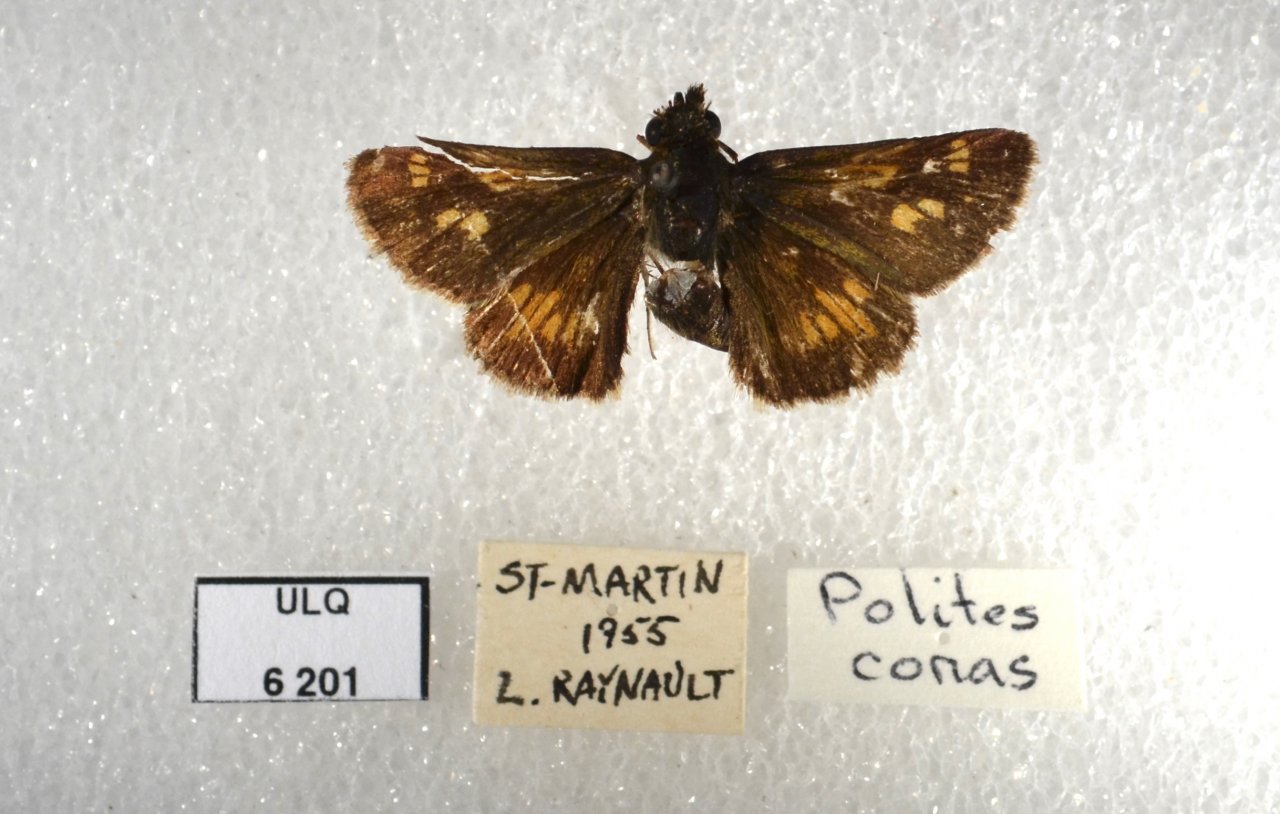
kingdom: Animalia
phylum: Arthropoda
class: Insecta
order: Lepidoptera
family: Hesperiidae
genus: Polites
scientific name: Polites coras
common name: Peck's Skipper
